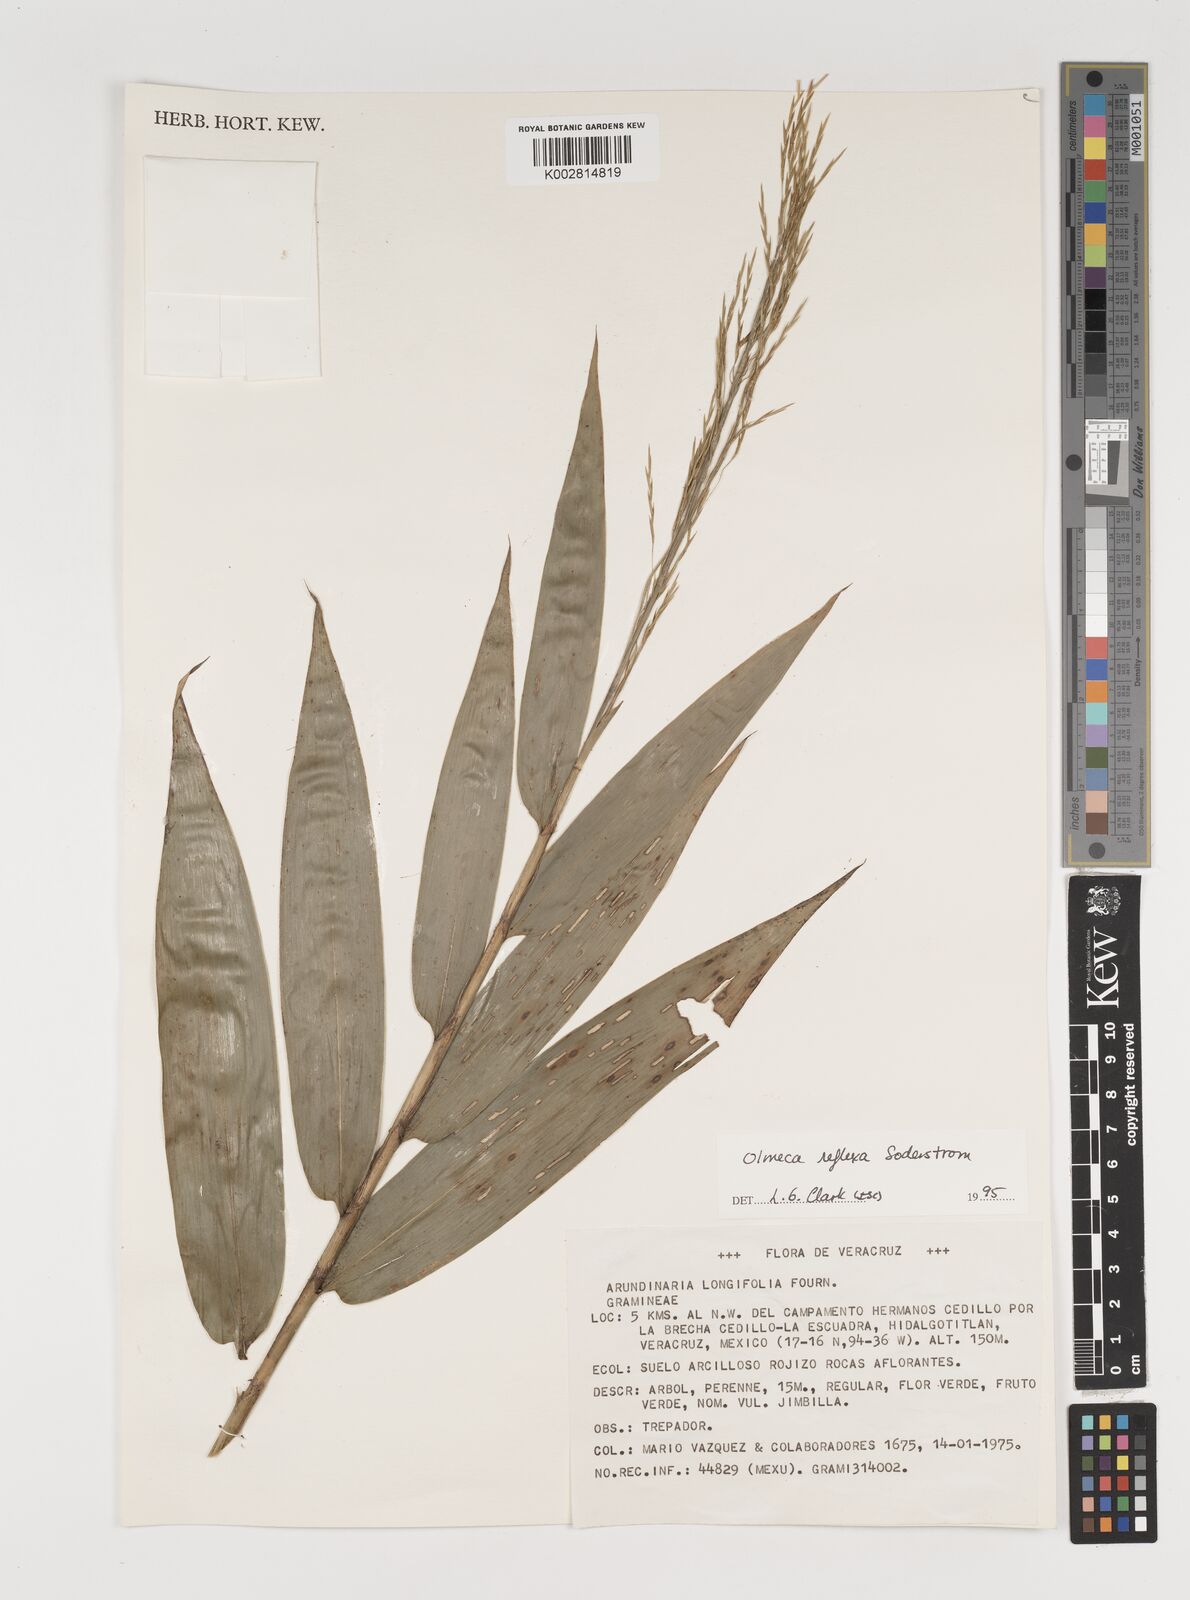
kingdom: Plantae
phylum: Tracheophyta
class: Liliopsida
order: Poales
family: Poaceae
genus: Olmeca
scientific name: Olmeca reflexa
